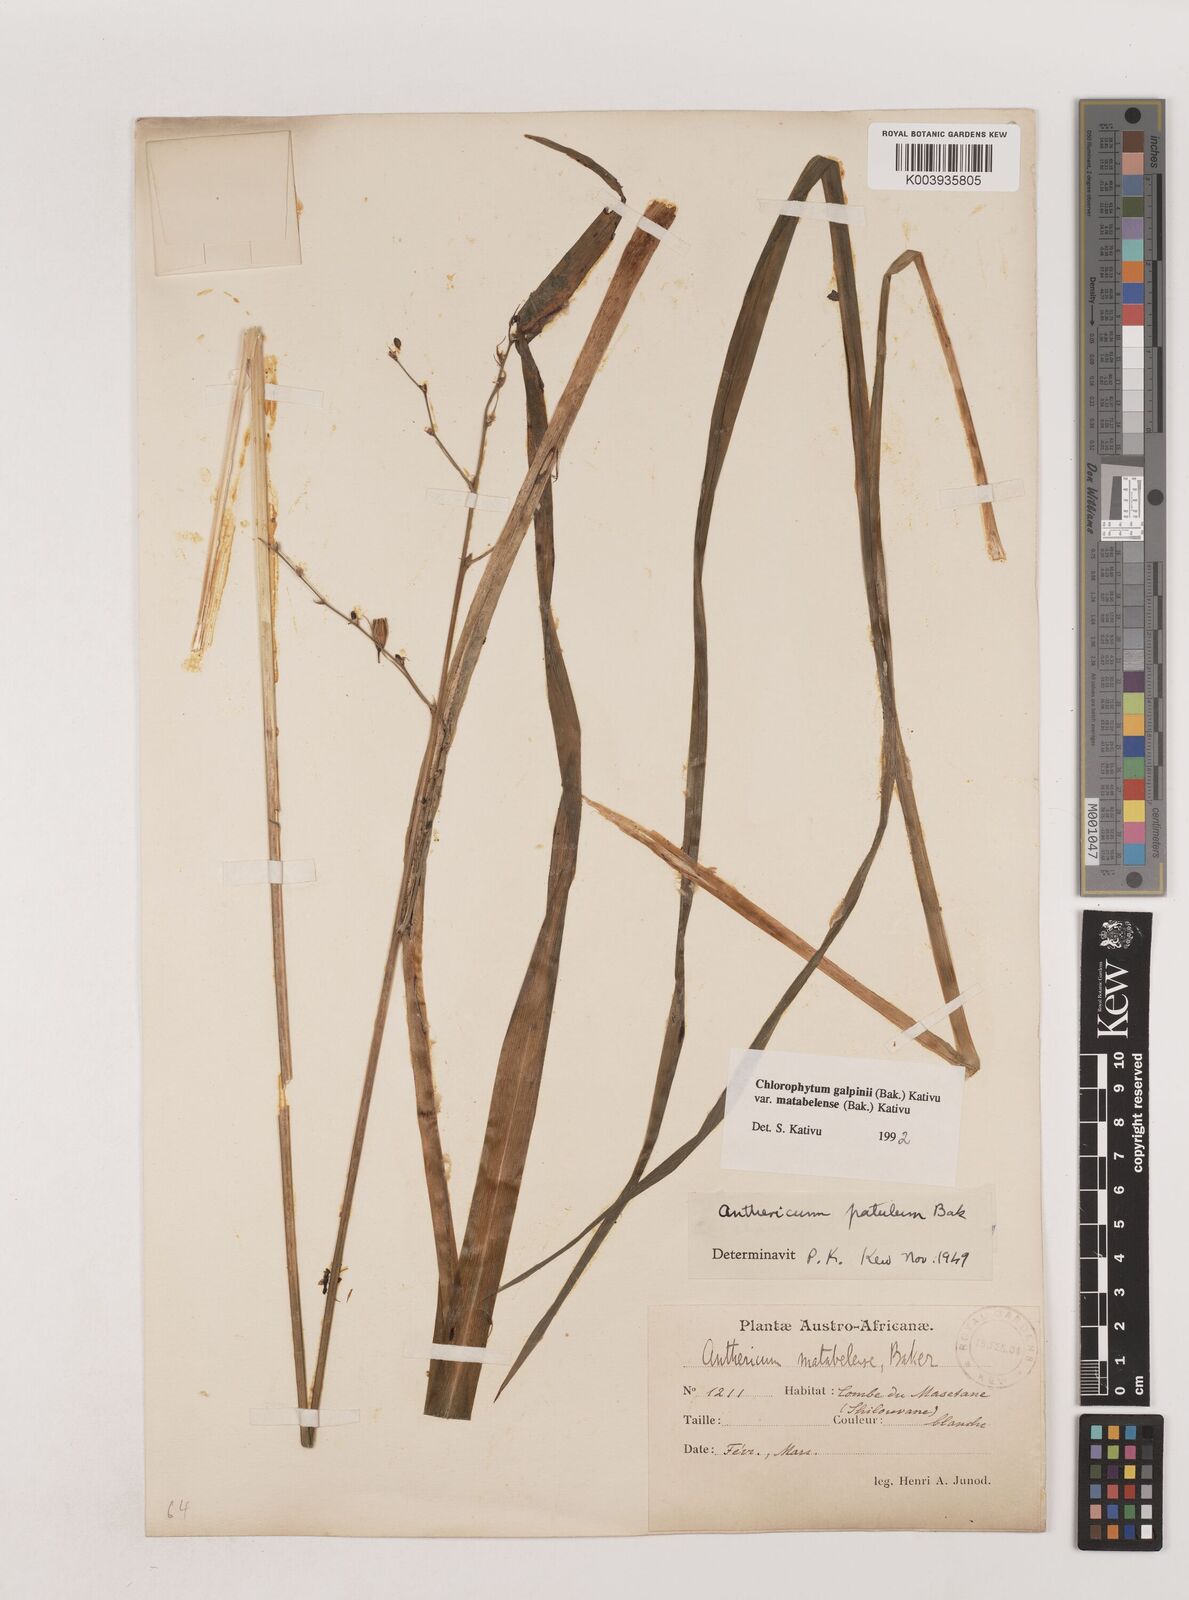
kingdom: Plantae
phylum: Tracheophyta
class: Liliopsida
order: Asparagales
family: Asparagaceae
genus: Chlorophytum
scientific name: Chlorophytum galpinii
